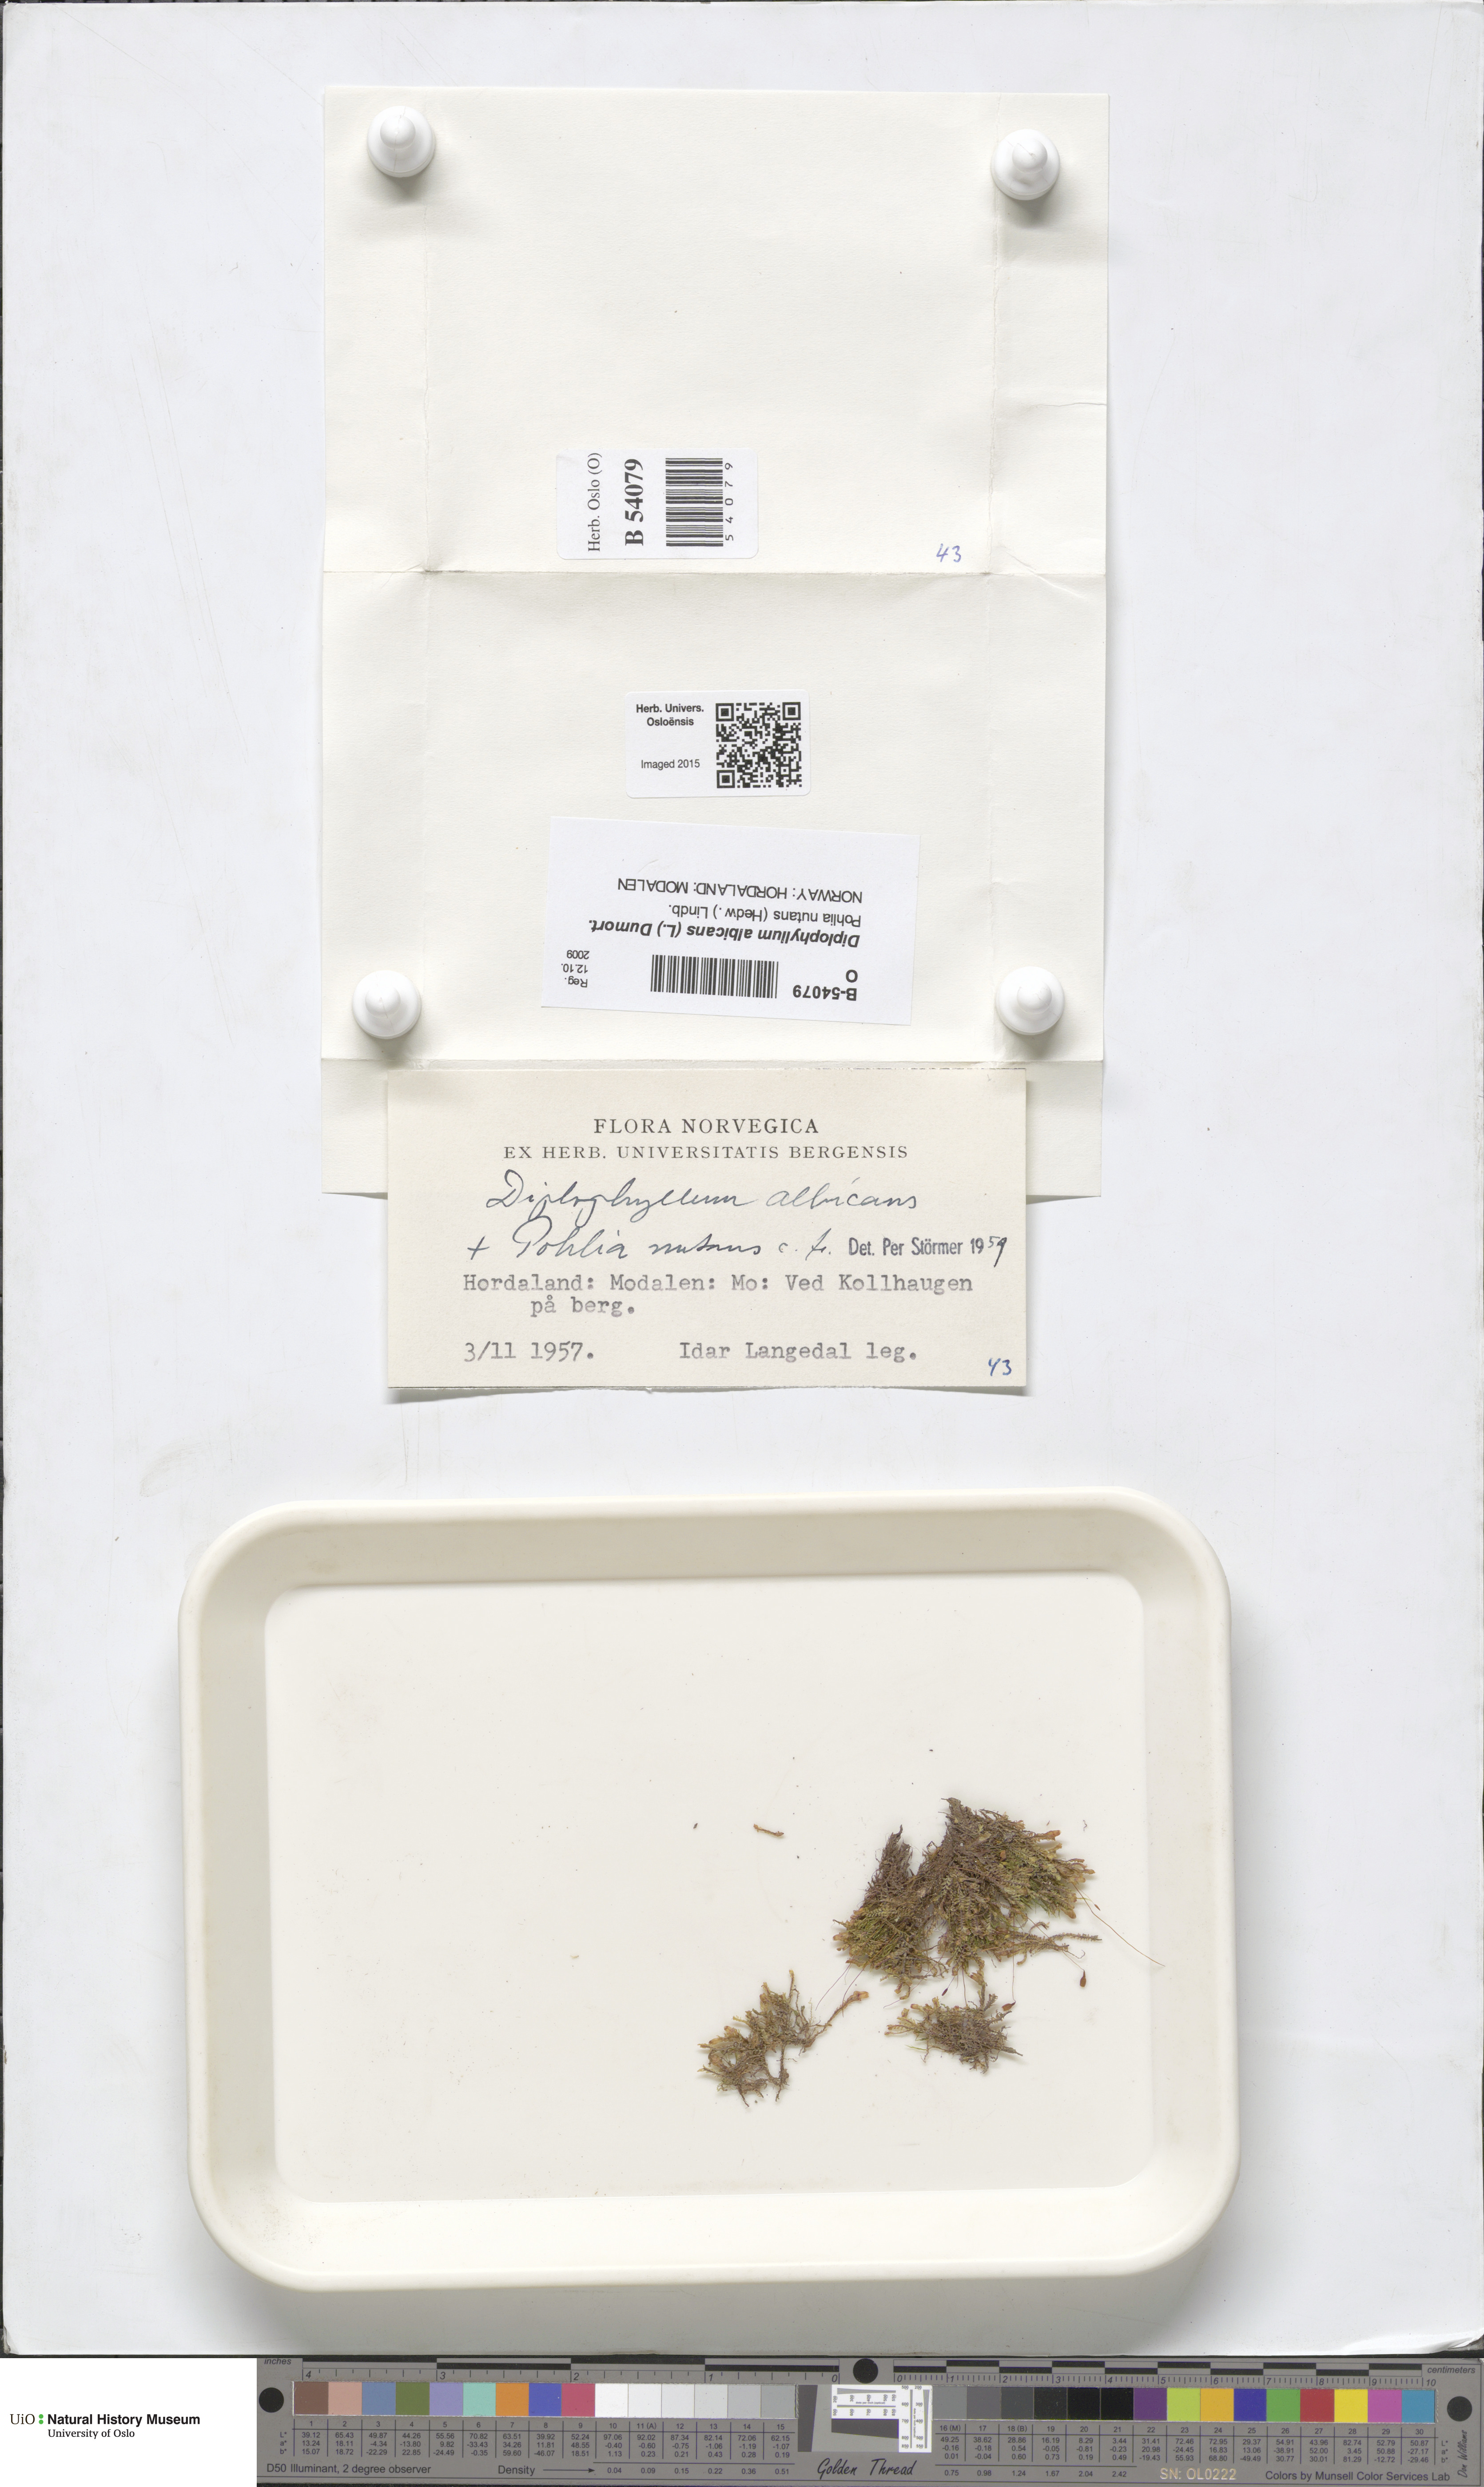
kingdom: Plantae
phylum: Marchantiophyta
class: Jungermanniopsida
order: Jungermanniales
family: Scapaniaceae
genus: Diplophyllum
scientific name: Diplophyllum albicans
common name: White earwort
